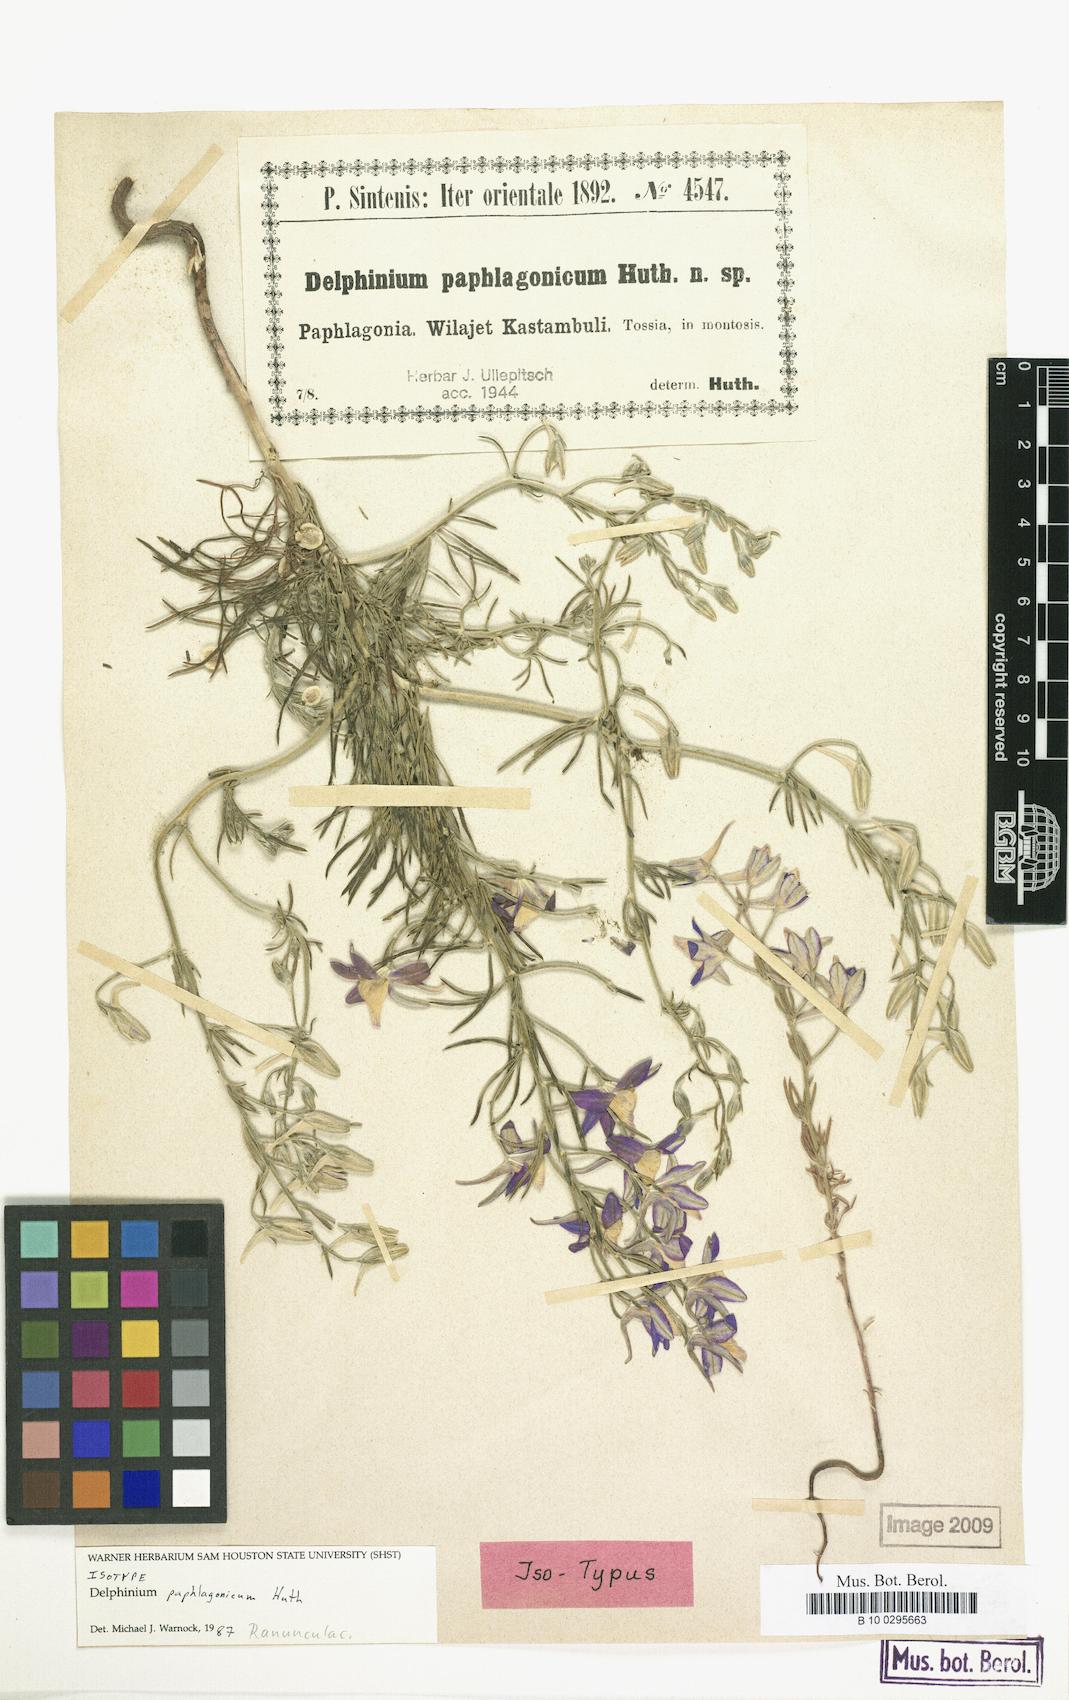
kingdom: Plantae
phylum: Tracheophyta
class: Magnoliopsida
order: Ranunculales
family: Ranunculaceae
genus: Delphinium
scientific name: Delphinium hellesponticum
